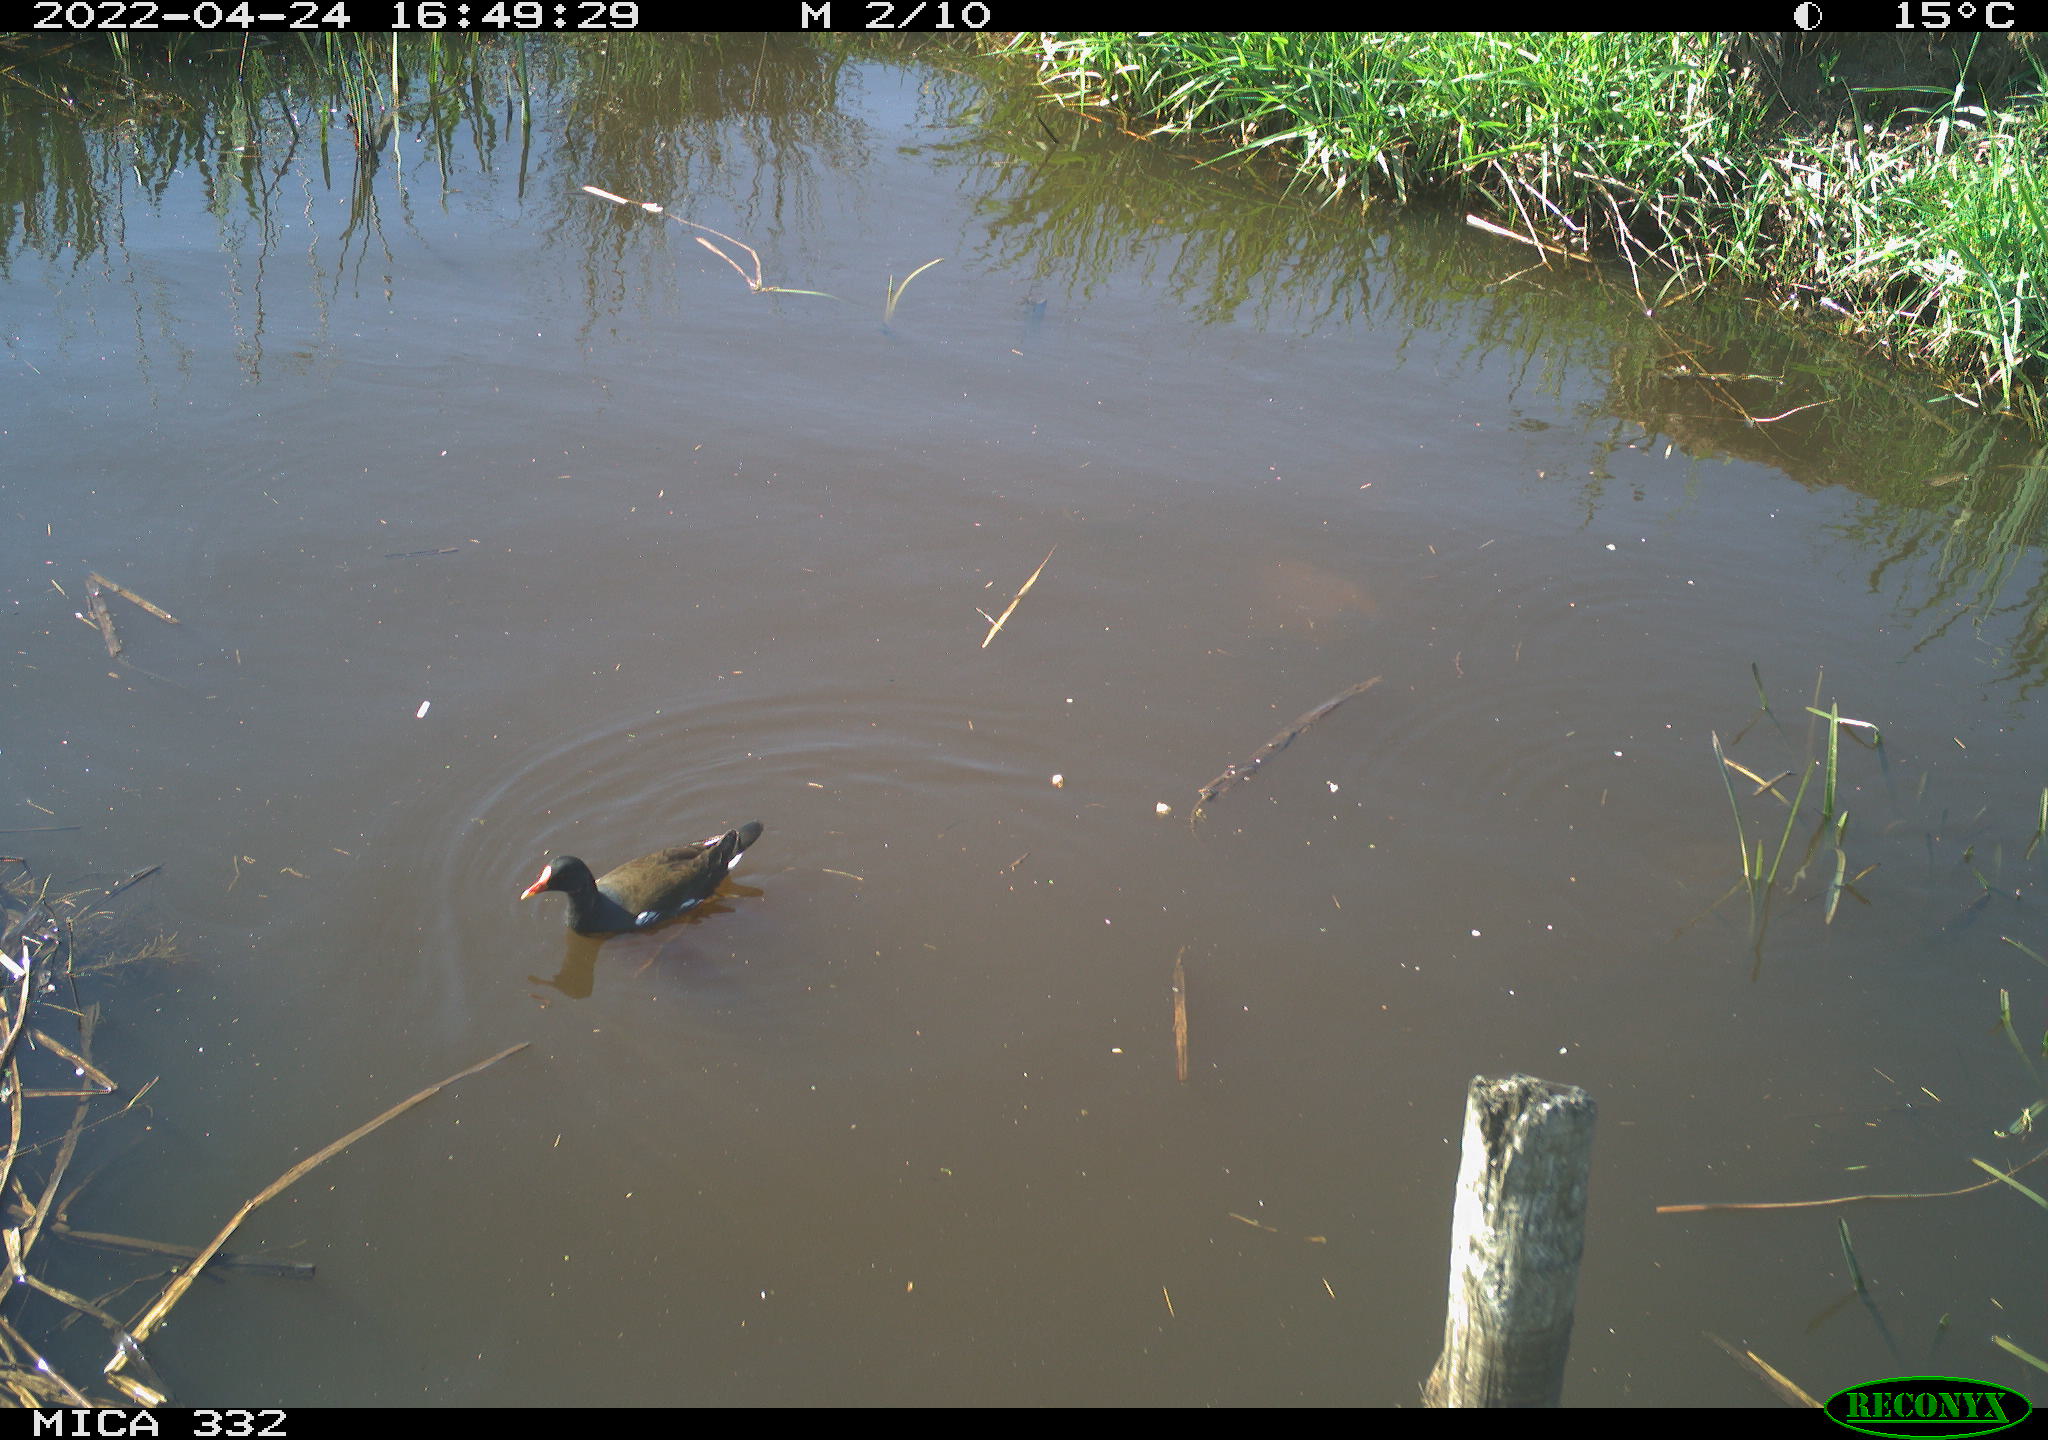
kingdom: Animalia
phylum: Chordata
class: Aves
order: Gruiformes
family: Rallidae
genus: Gallinula
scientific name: Gallinula chloropus
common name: Common moorhen
